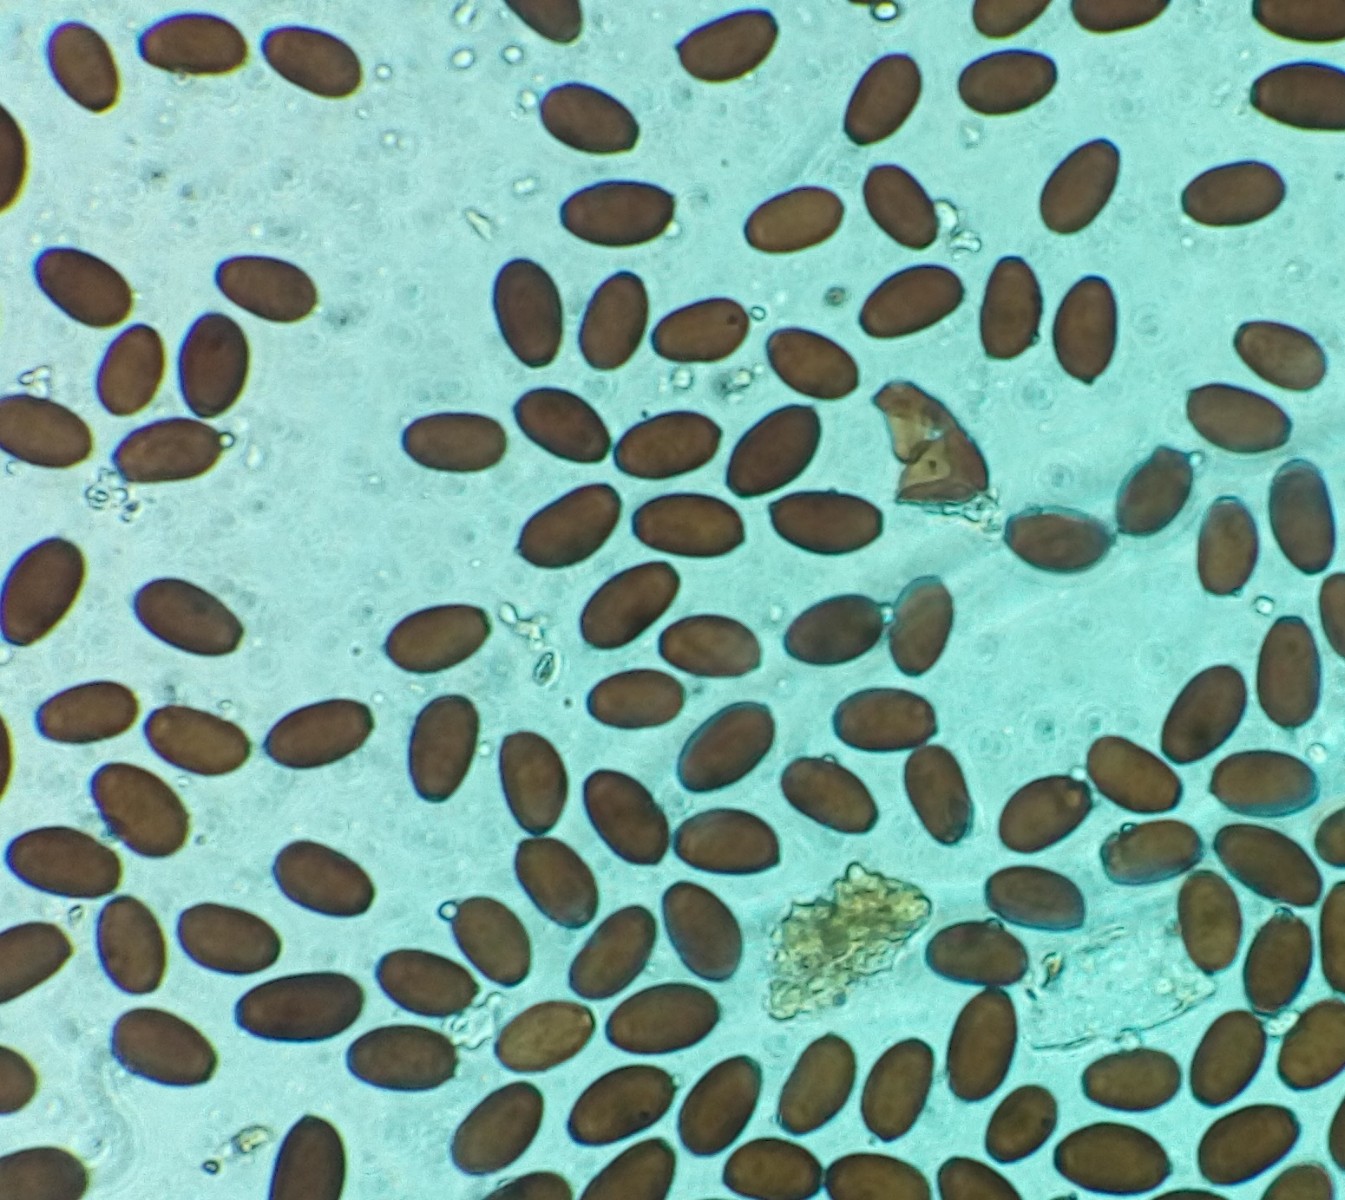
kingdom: Fungi
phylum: Basidiomycota
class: Agaricomycetes
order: Agaricales
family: Psathyrellaceae
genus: Coprinopsis
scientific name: Coprinopsis
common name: blækhat
